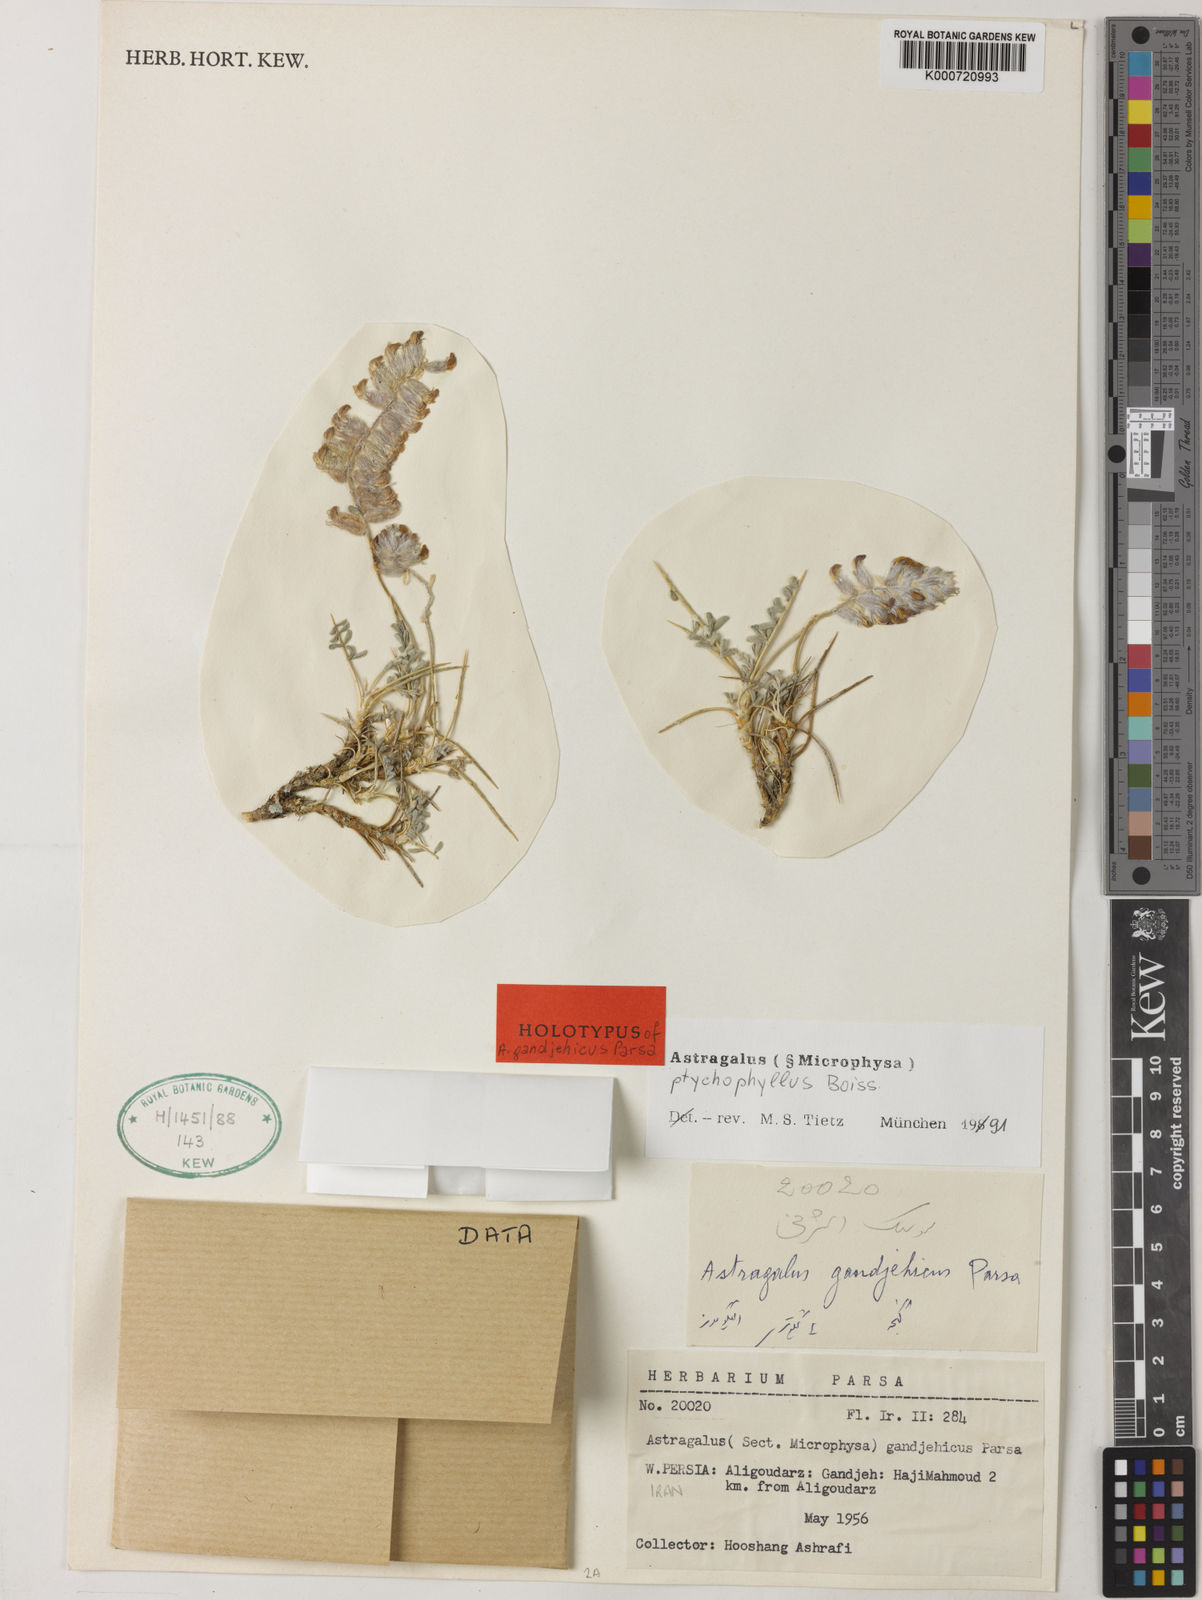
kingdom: Plantae
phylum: Tracheophyta
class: Magnoliopsida
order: Fabales
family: Fabaceae
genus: Astragalus
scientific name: Astragalus ptychophyllus
